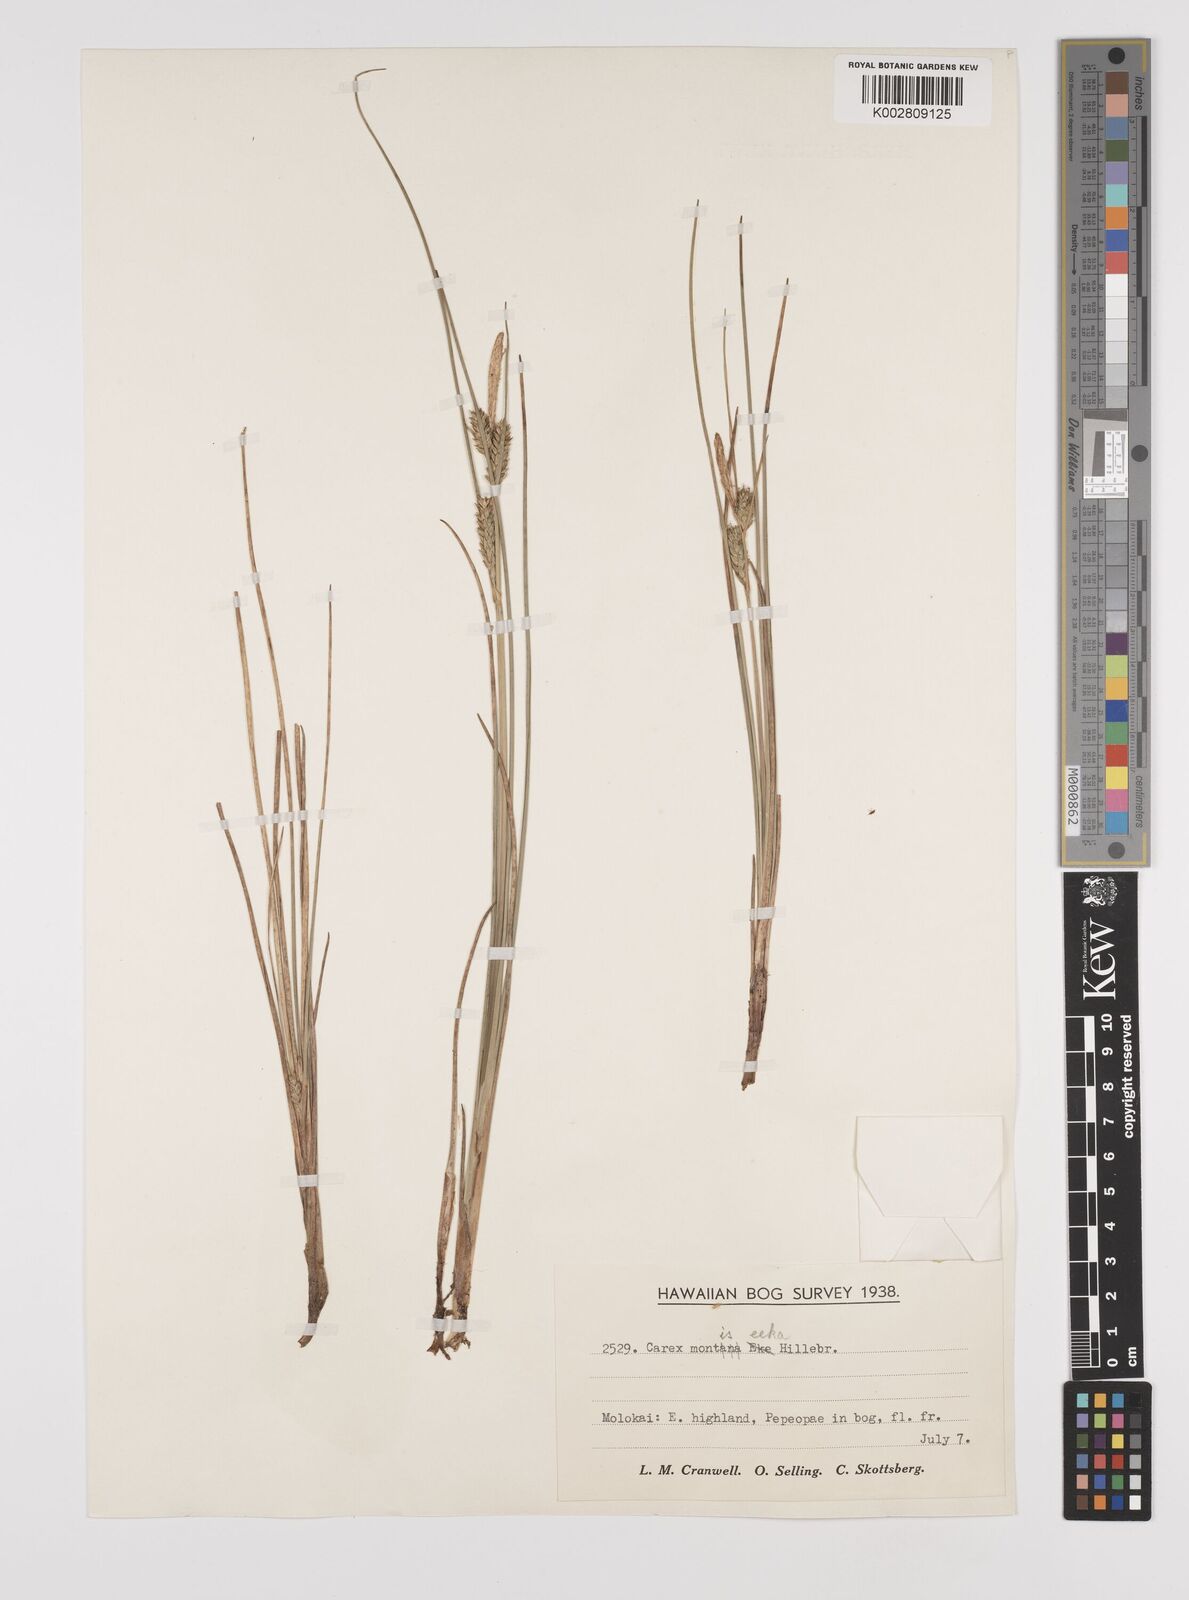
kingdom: Plantae
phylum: Tracheophyta
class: Liliopsida
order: Poales
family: Cyperaceae
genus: Carex
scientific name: Carex montis-eeka
